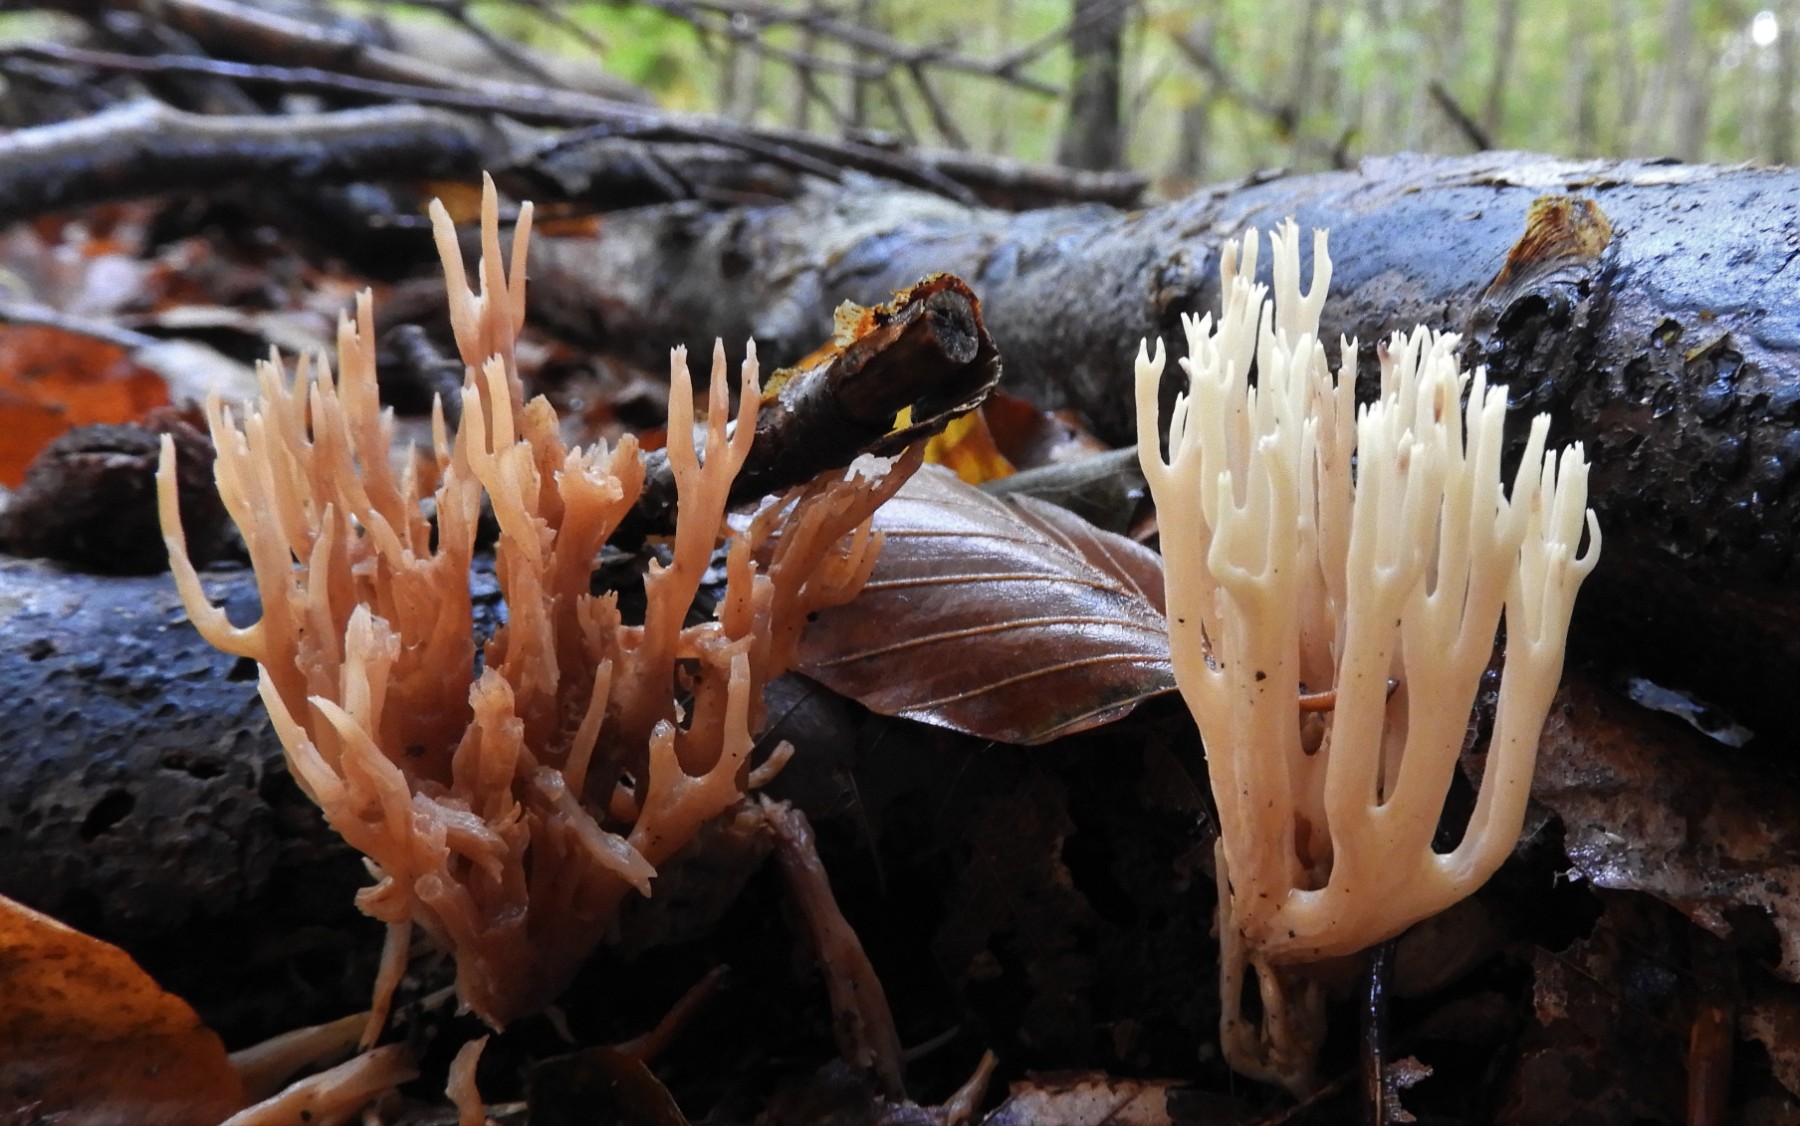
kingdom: Fungi
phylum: Basidiomycota
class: Agaricomycetes
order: Gomphales
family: Gomphaceae
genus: Ramaria
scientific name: Ramaria stricta
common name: rank koralsvamp
